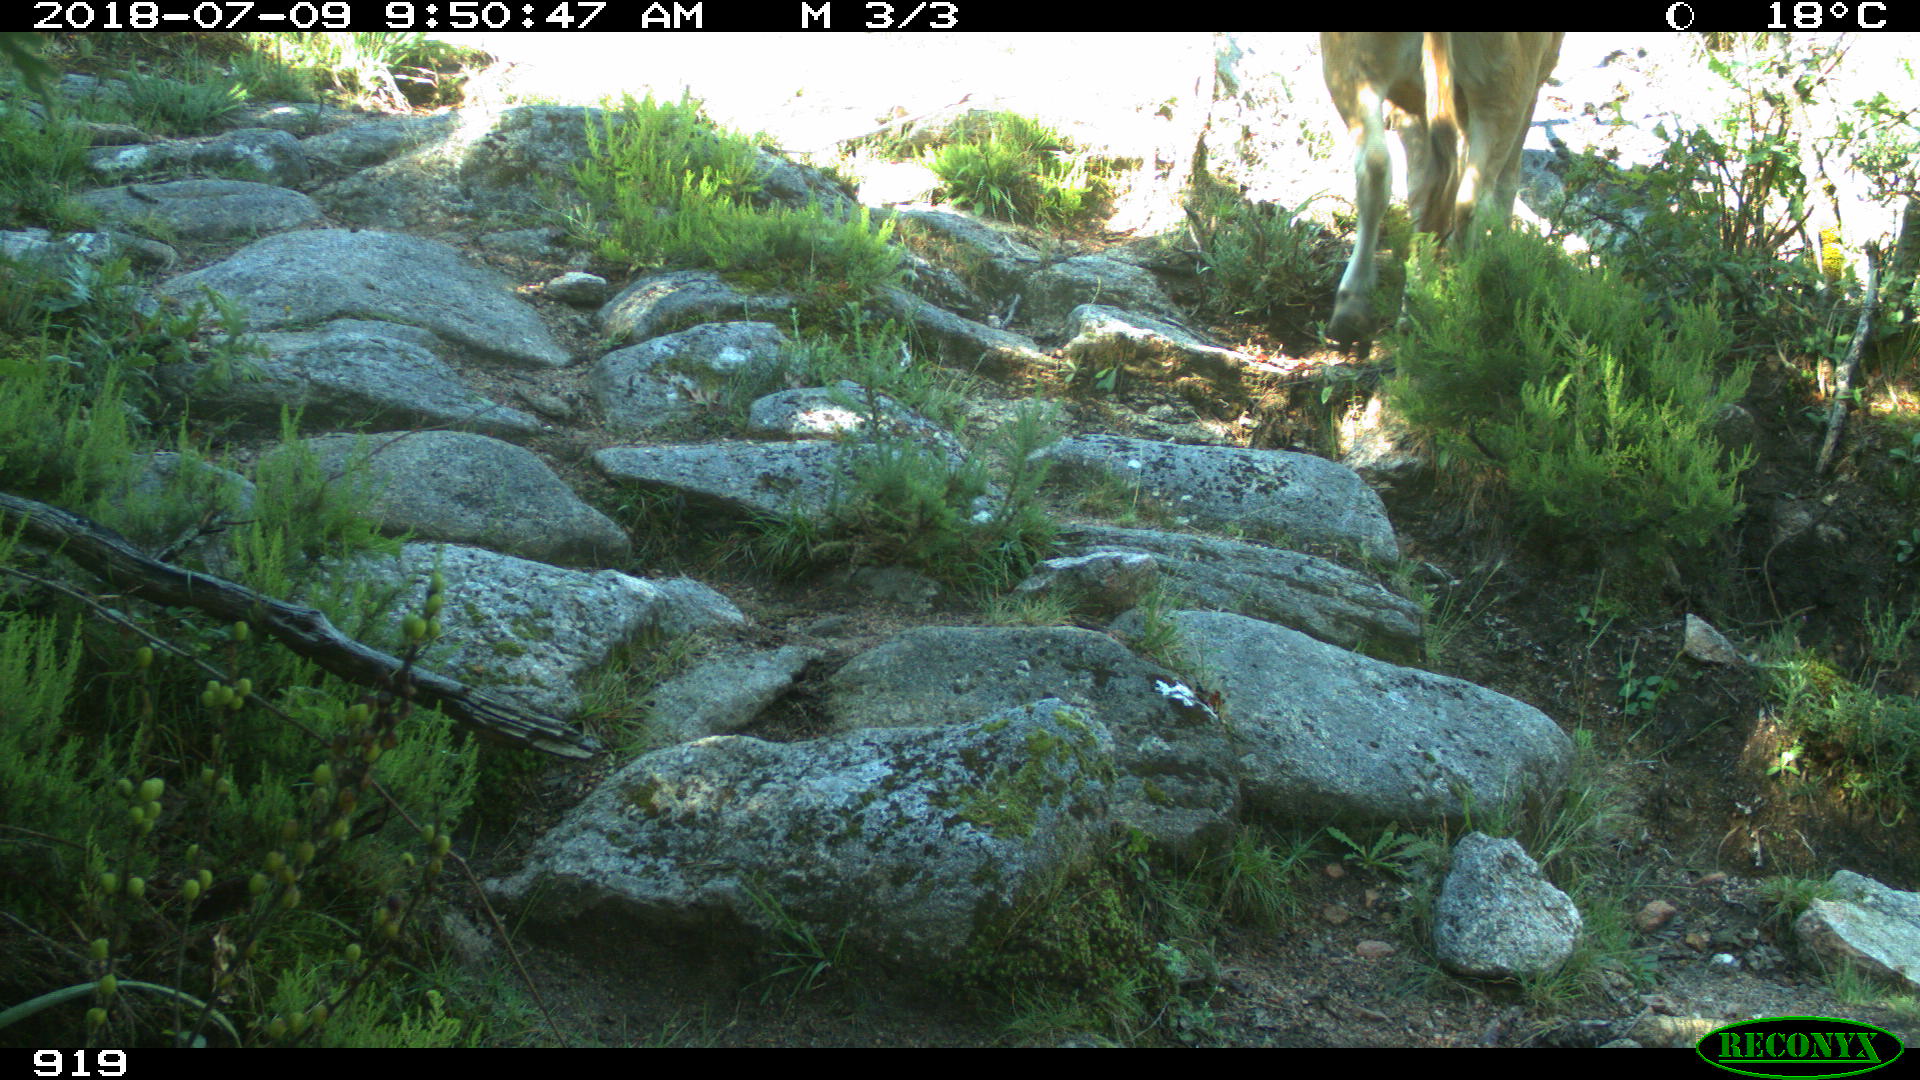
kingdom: Animalia
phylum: Chordata
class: Mammalia
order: Artiodactyla
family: Bovidae
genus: Bos
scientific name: Bos taurus
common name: Domesticated cattle
